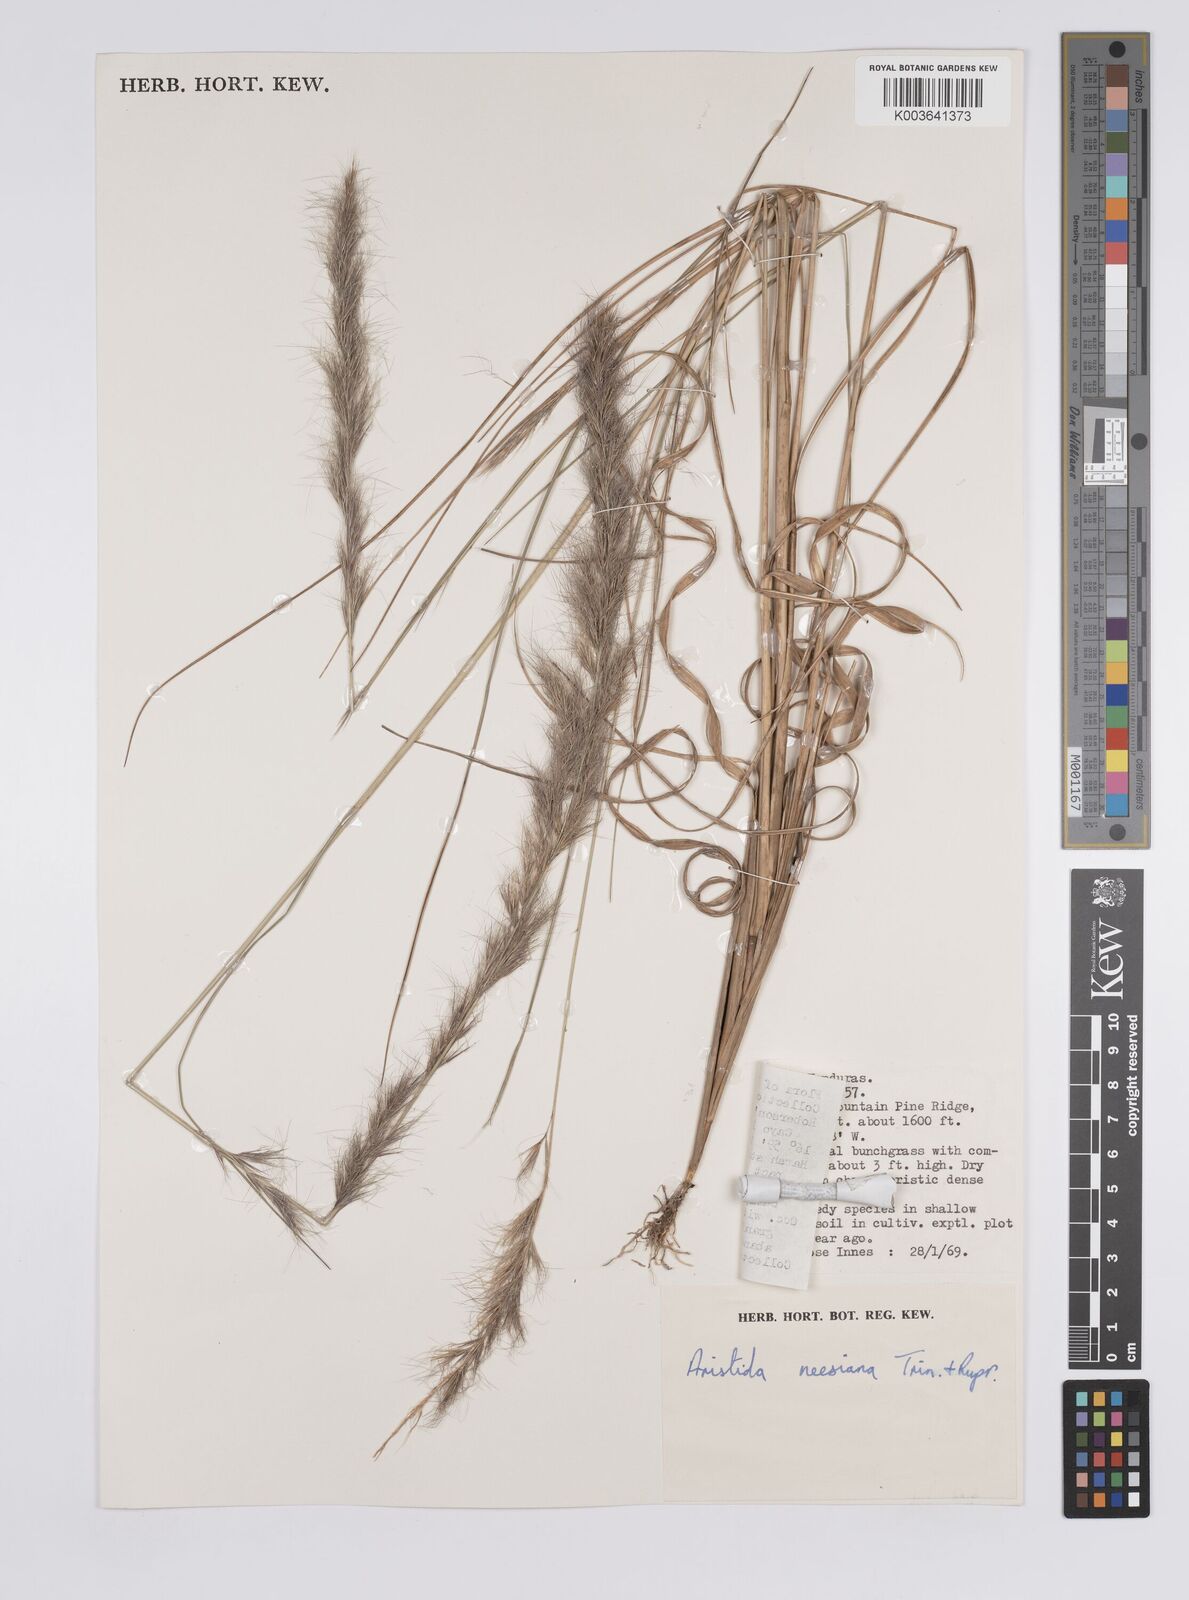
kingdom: Plantae
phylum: Tracheophyta
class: Liliopsida
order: Poales
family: Poaceae
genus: Aristida
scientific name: Aristida recurvata
